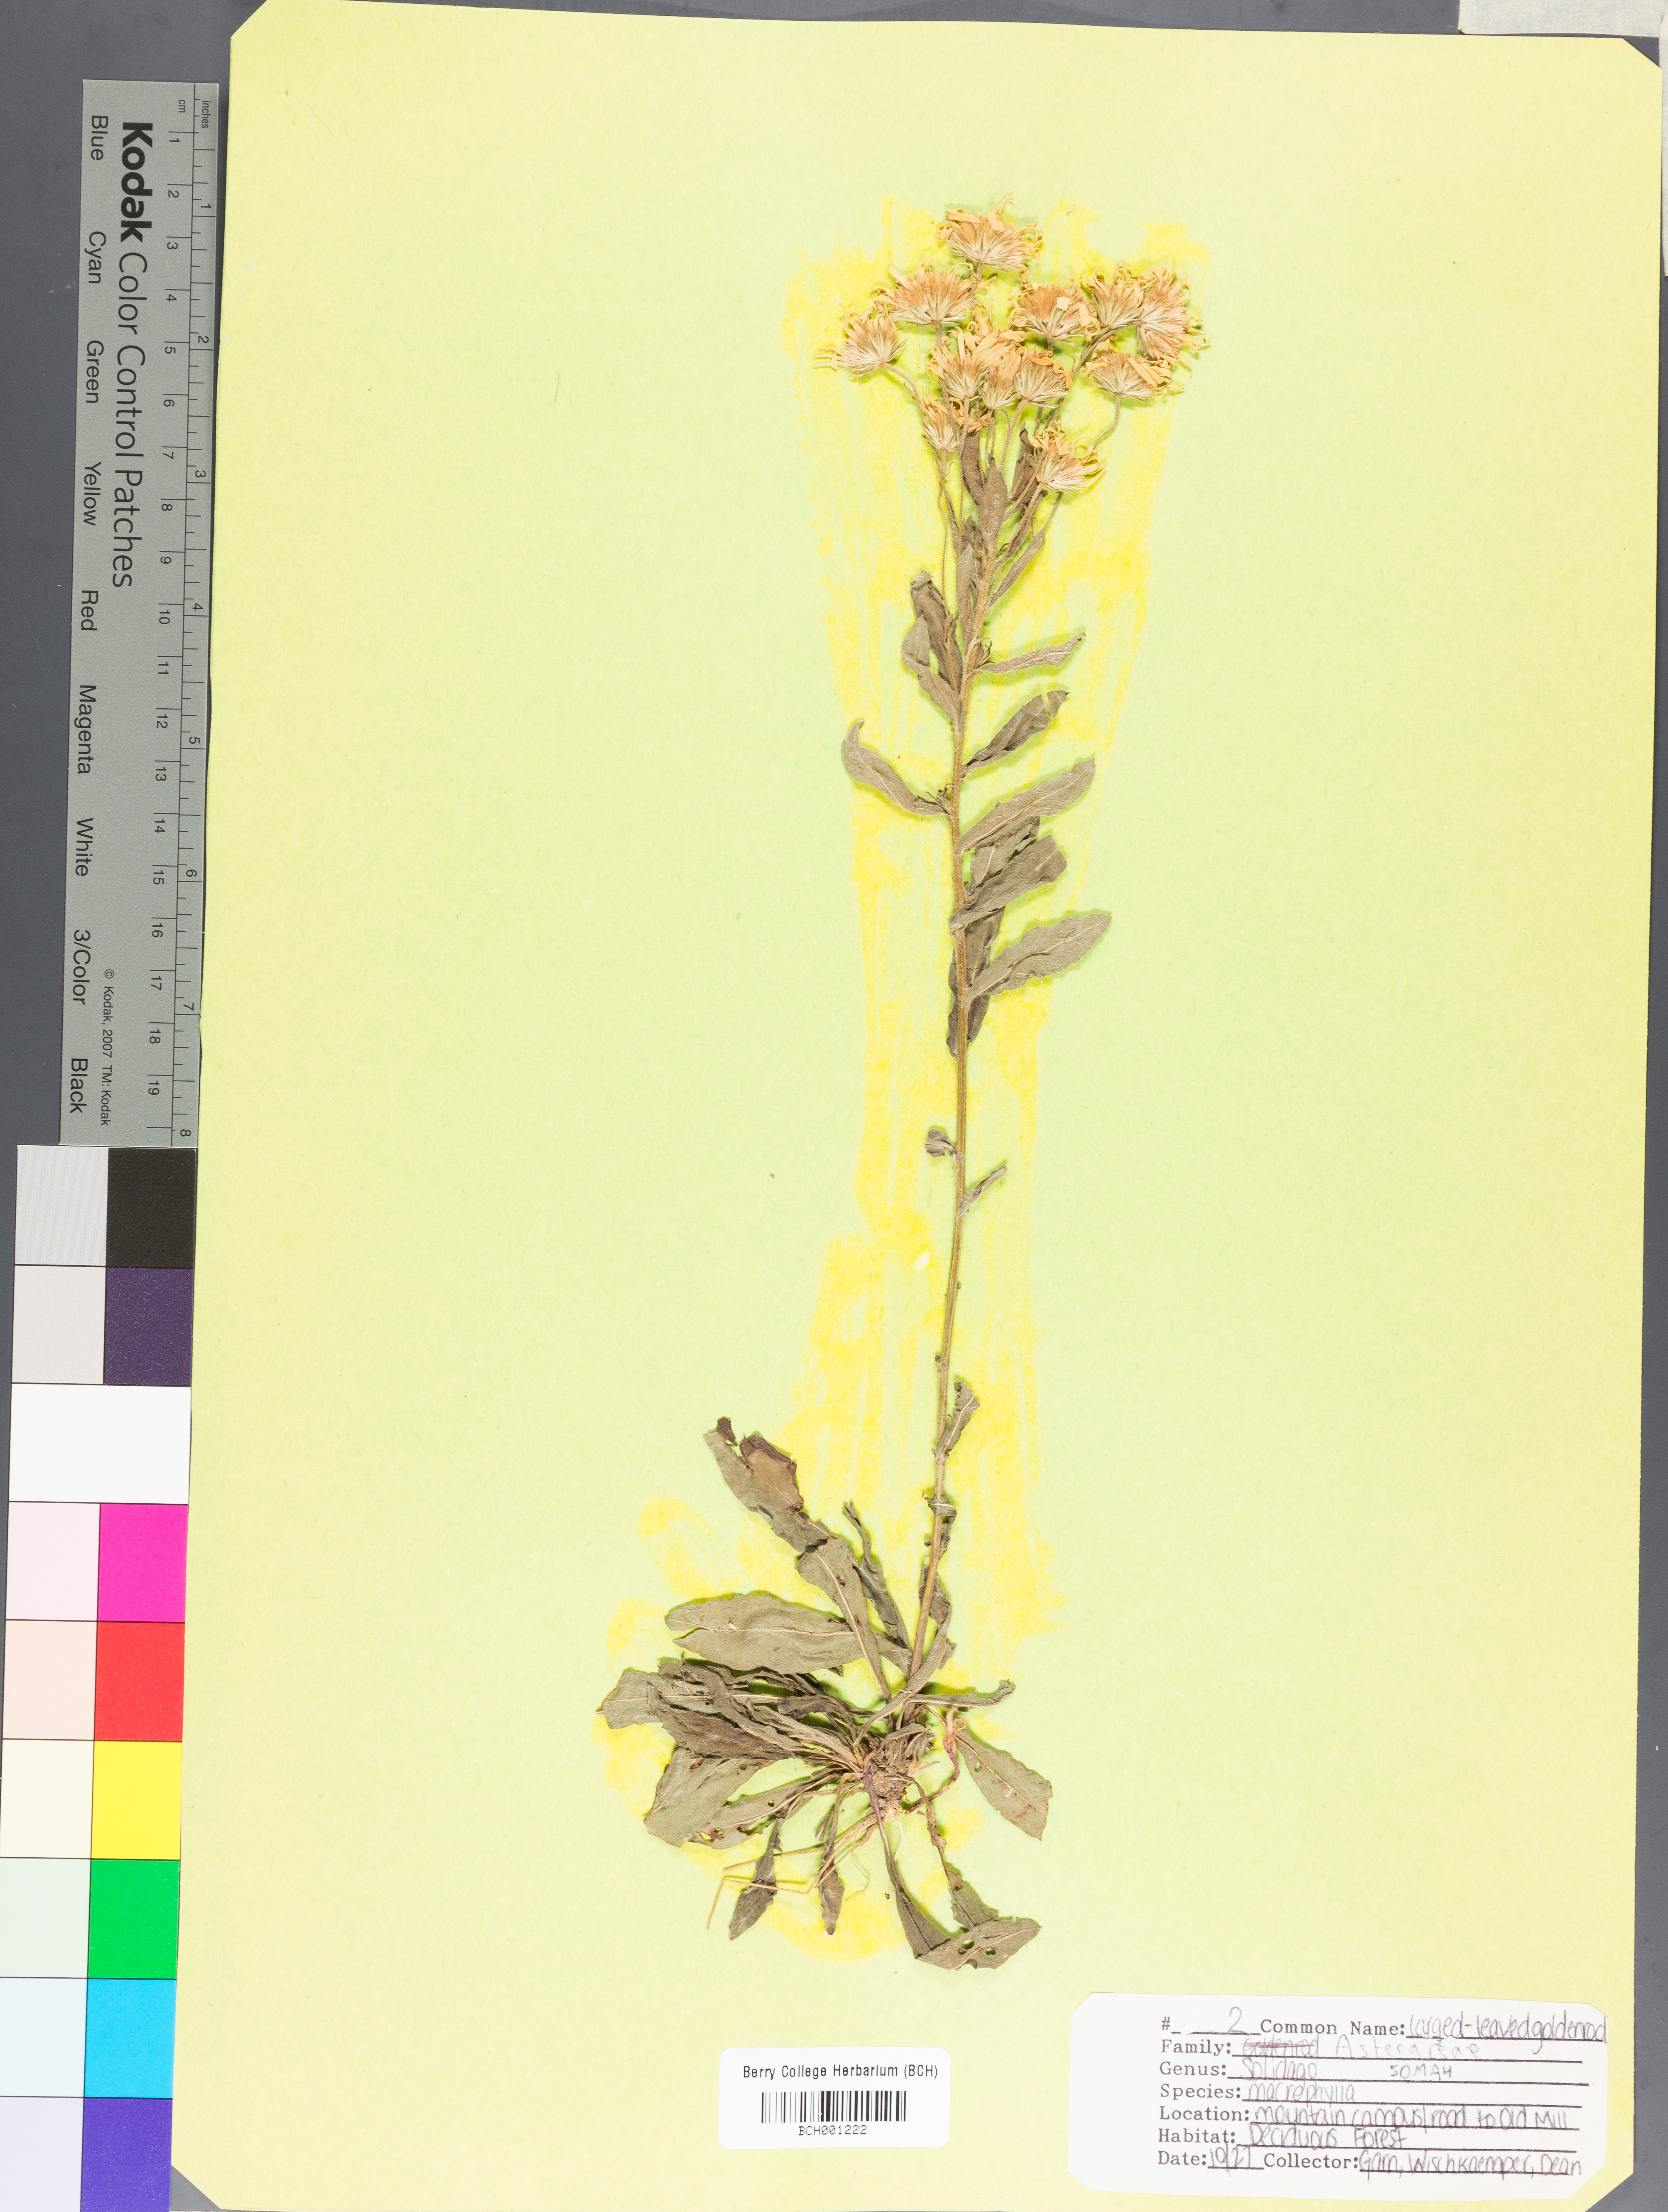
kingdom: Plantae
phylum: Tracheophyta
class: Magnoliopsida
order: Asterales
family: Asteraceae
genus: Solidago
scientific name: Solidago macrophylla
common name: Large-leaved goldenrod
